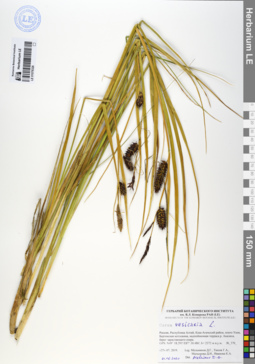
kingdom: Plantae
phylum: Tracheophyta
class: Liliopsida
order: Poales
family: Cyperaceae
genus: Carex
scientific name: Carex vesicaria
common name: Bladder-sedge
